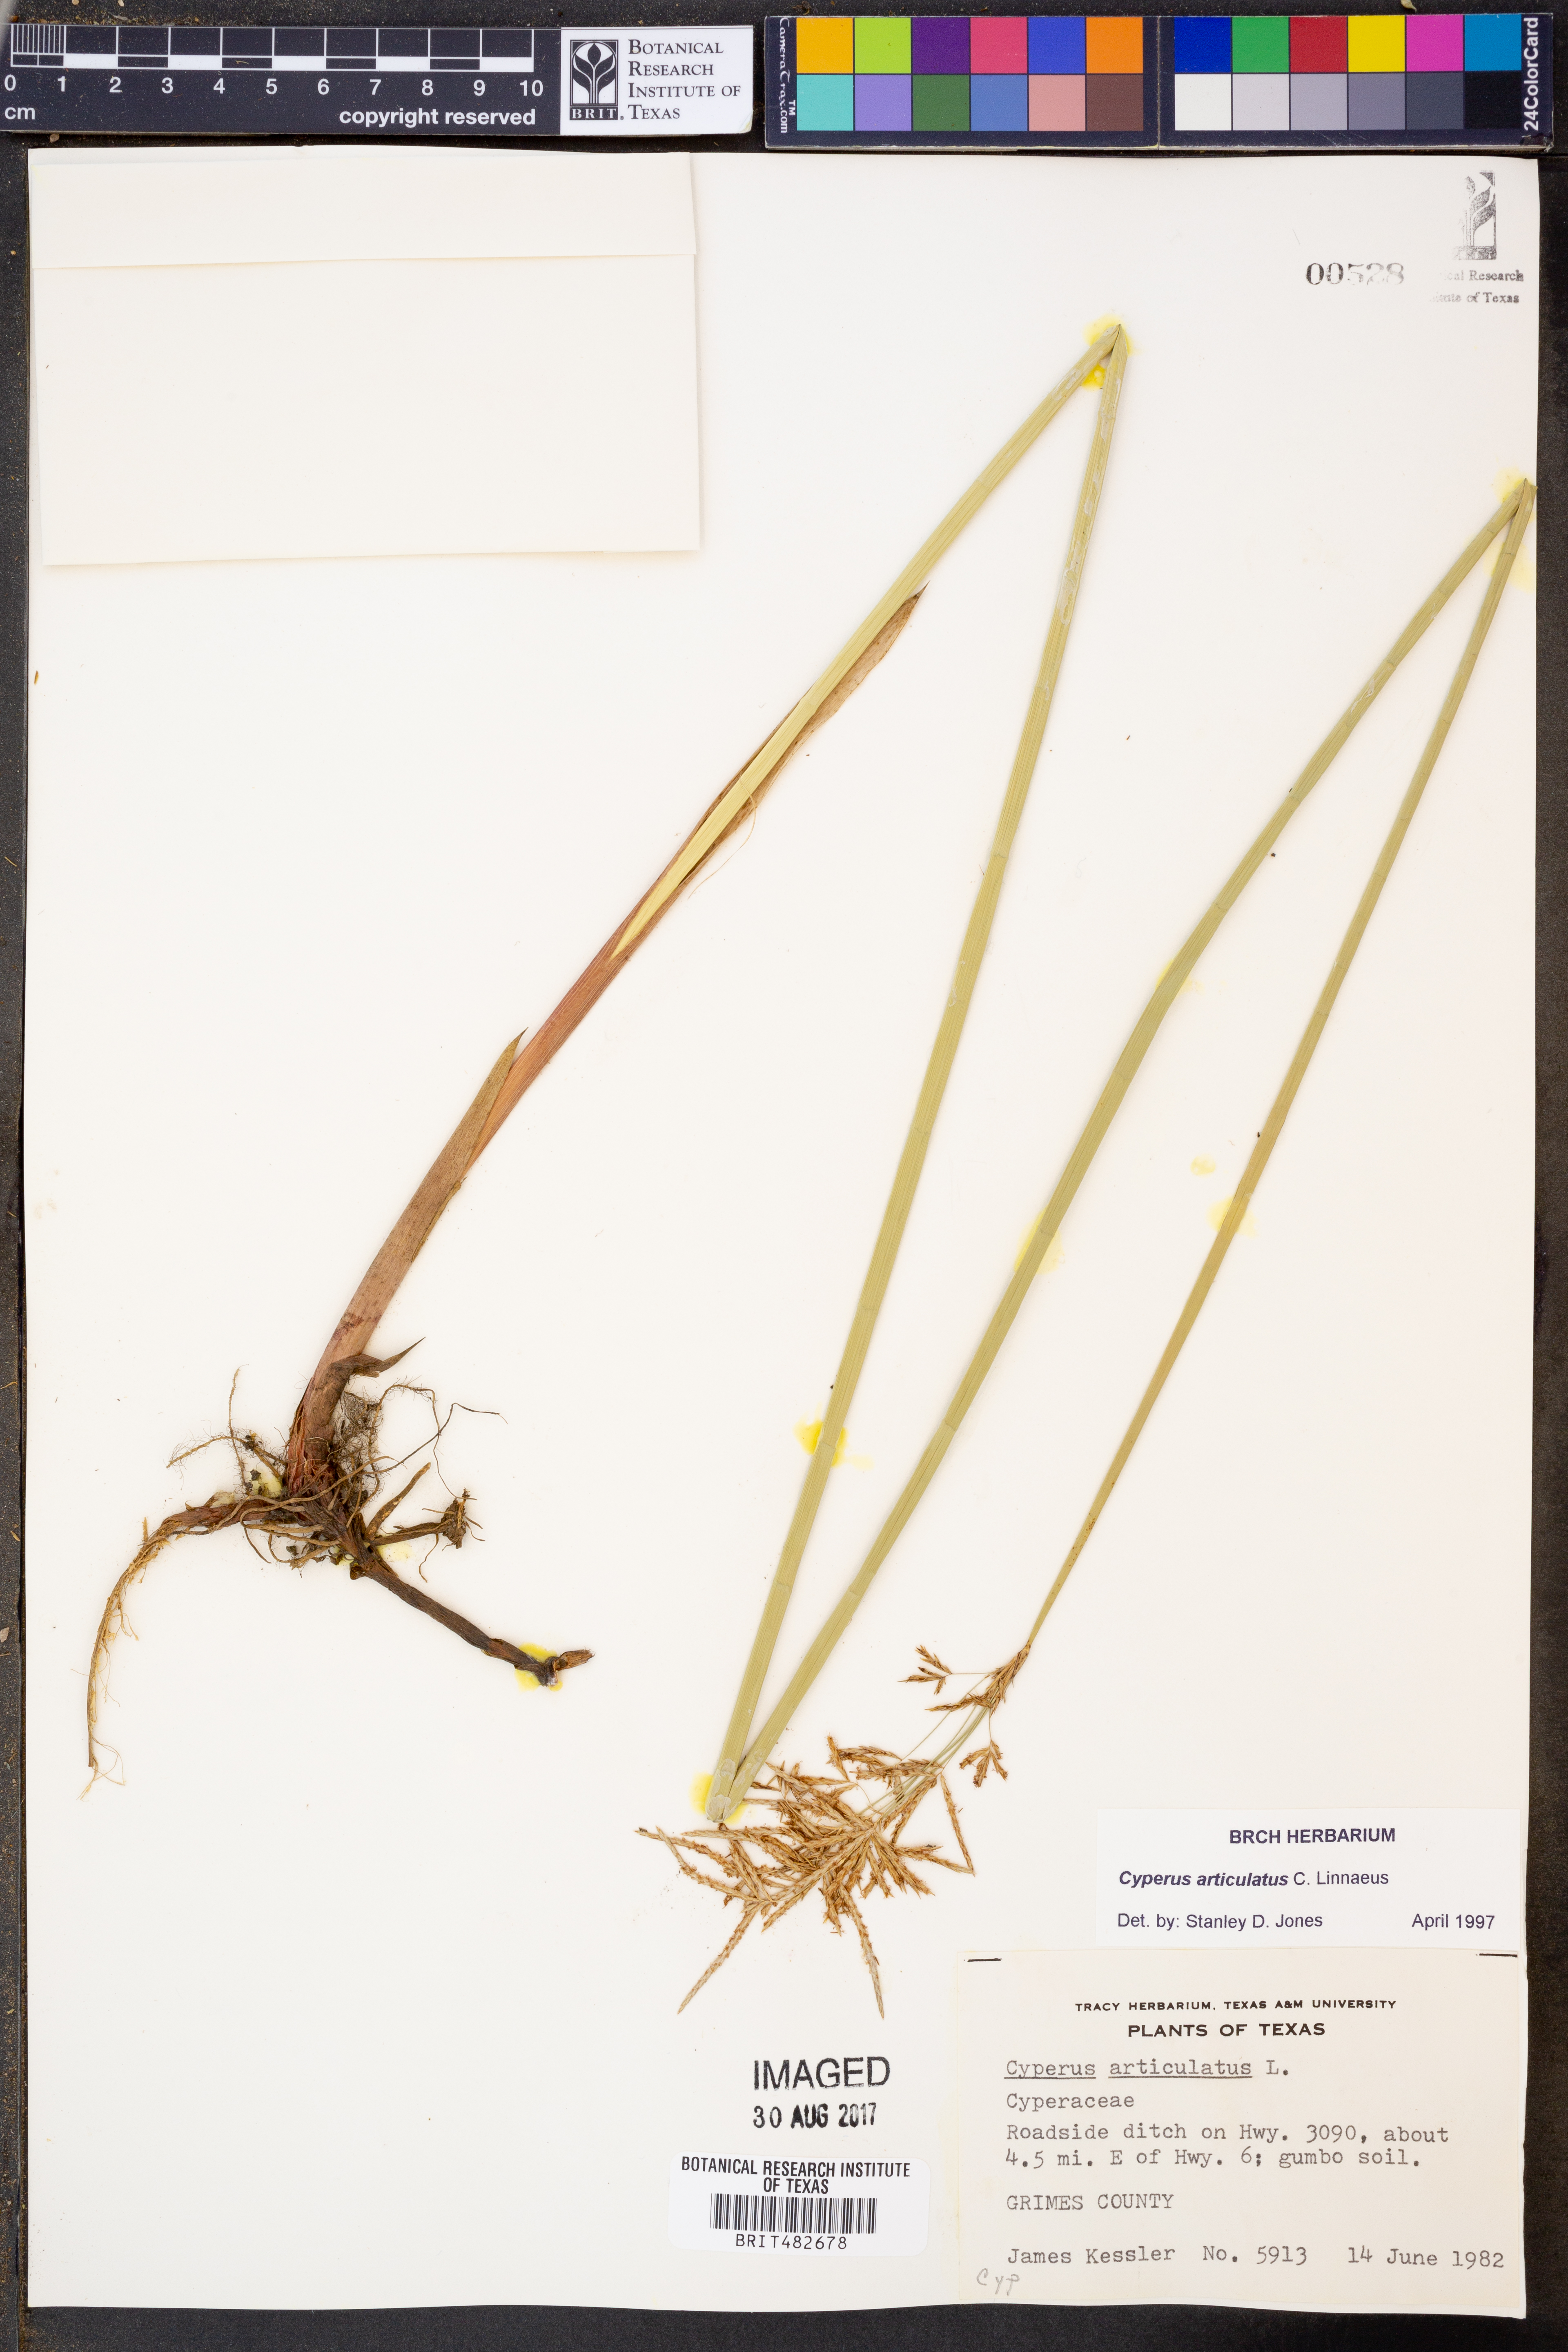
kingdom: Plantae
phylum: Tracheophyta
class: Liliopsida
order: Poales
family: Cyperaceae
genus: Cyperus
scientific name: Cyperus articulatus
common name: Jointed flatsedge
